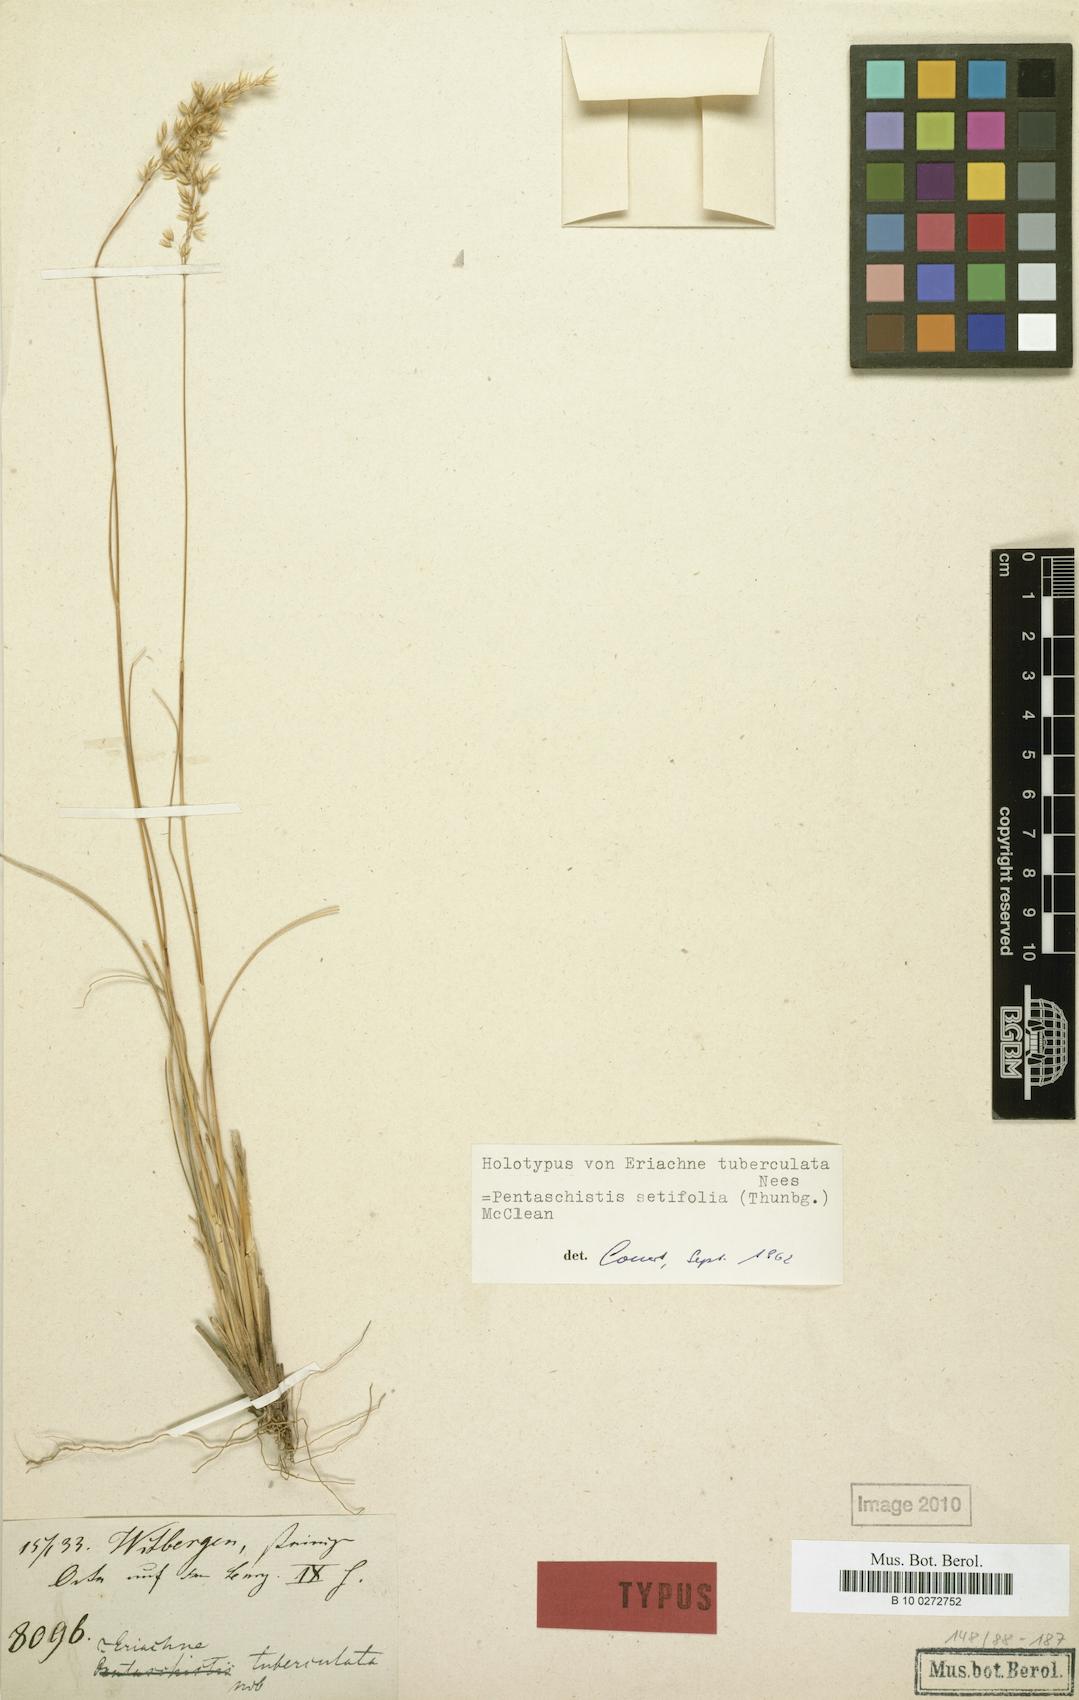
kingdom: Plantae
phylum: Tracheophyta
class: Liliopsida
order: Poales
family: Poaceae
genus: Pentameris
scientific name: Pentameris setifolia
